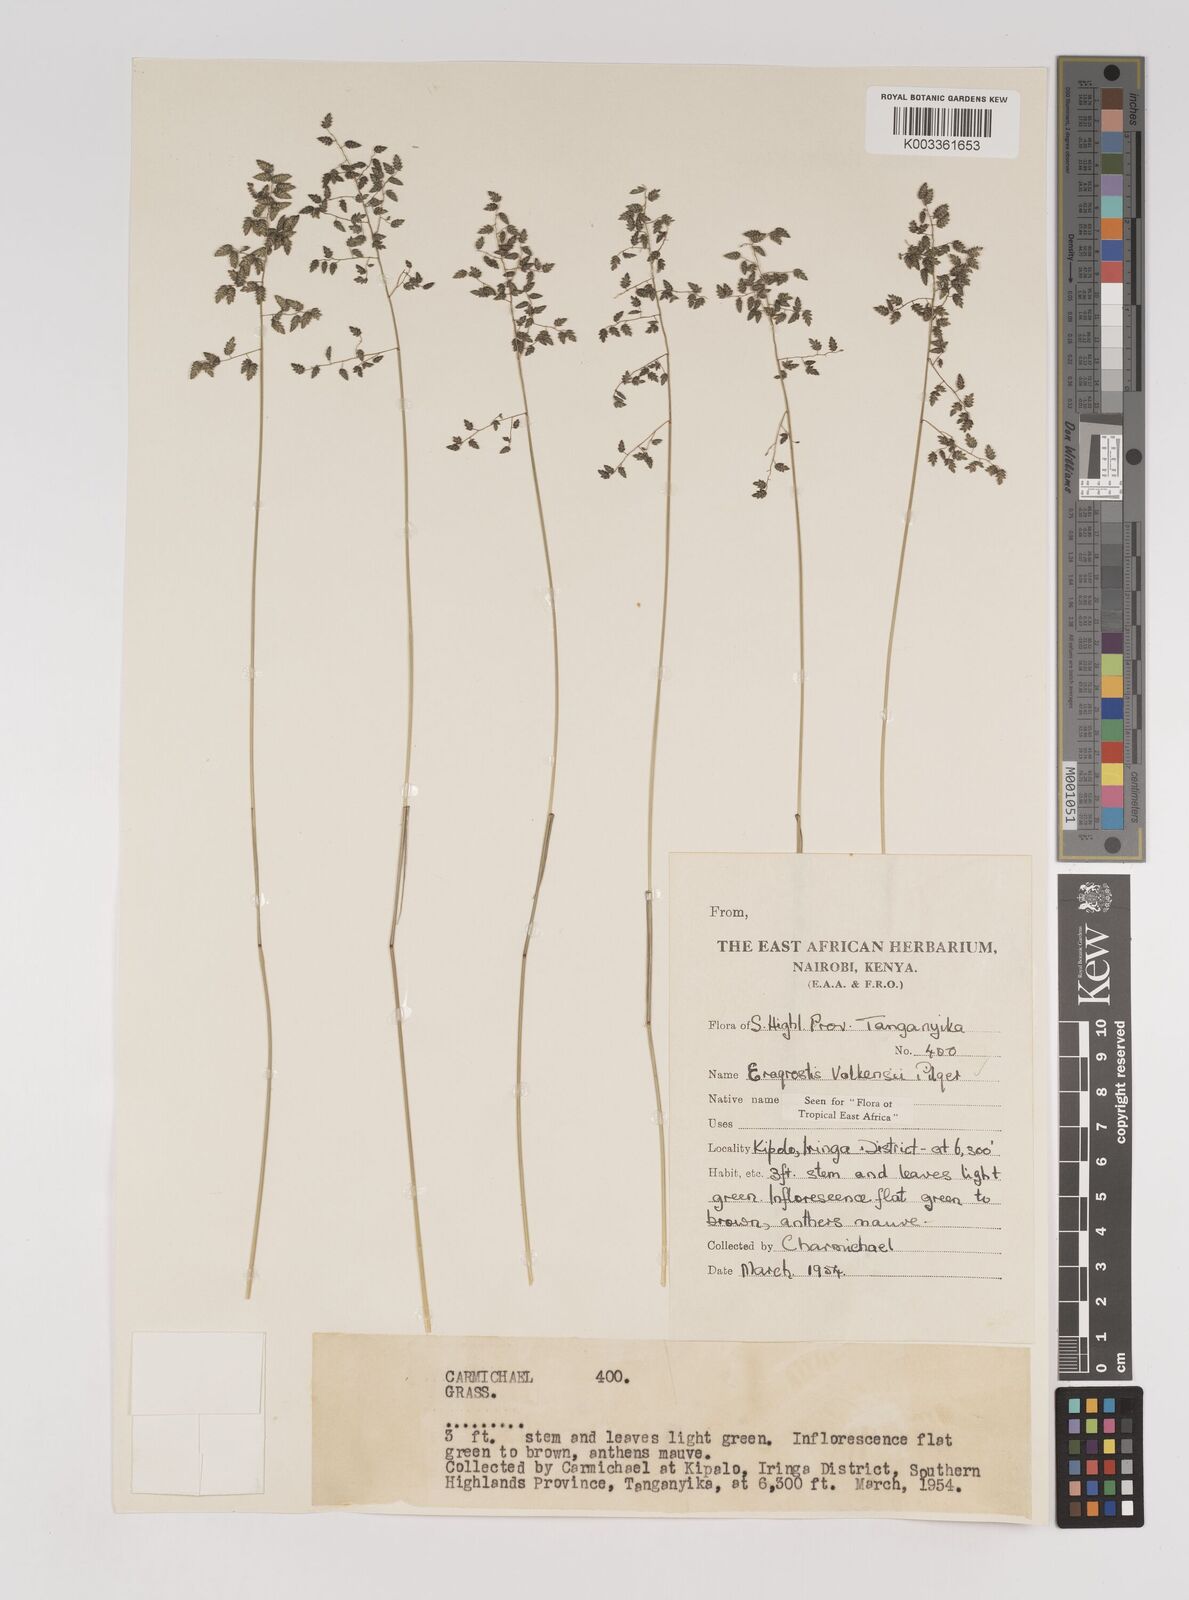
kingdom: Plantae
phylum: Tracheophyta
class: Liliopsida
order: Poales
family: Poaceae
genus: Eragrostis
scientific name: Eragrostis volkensii
